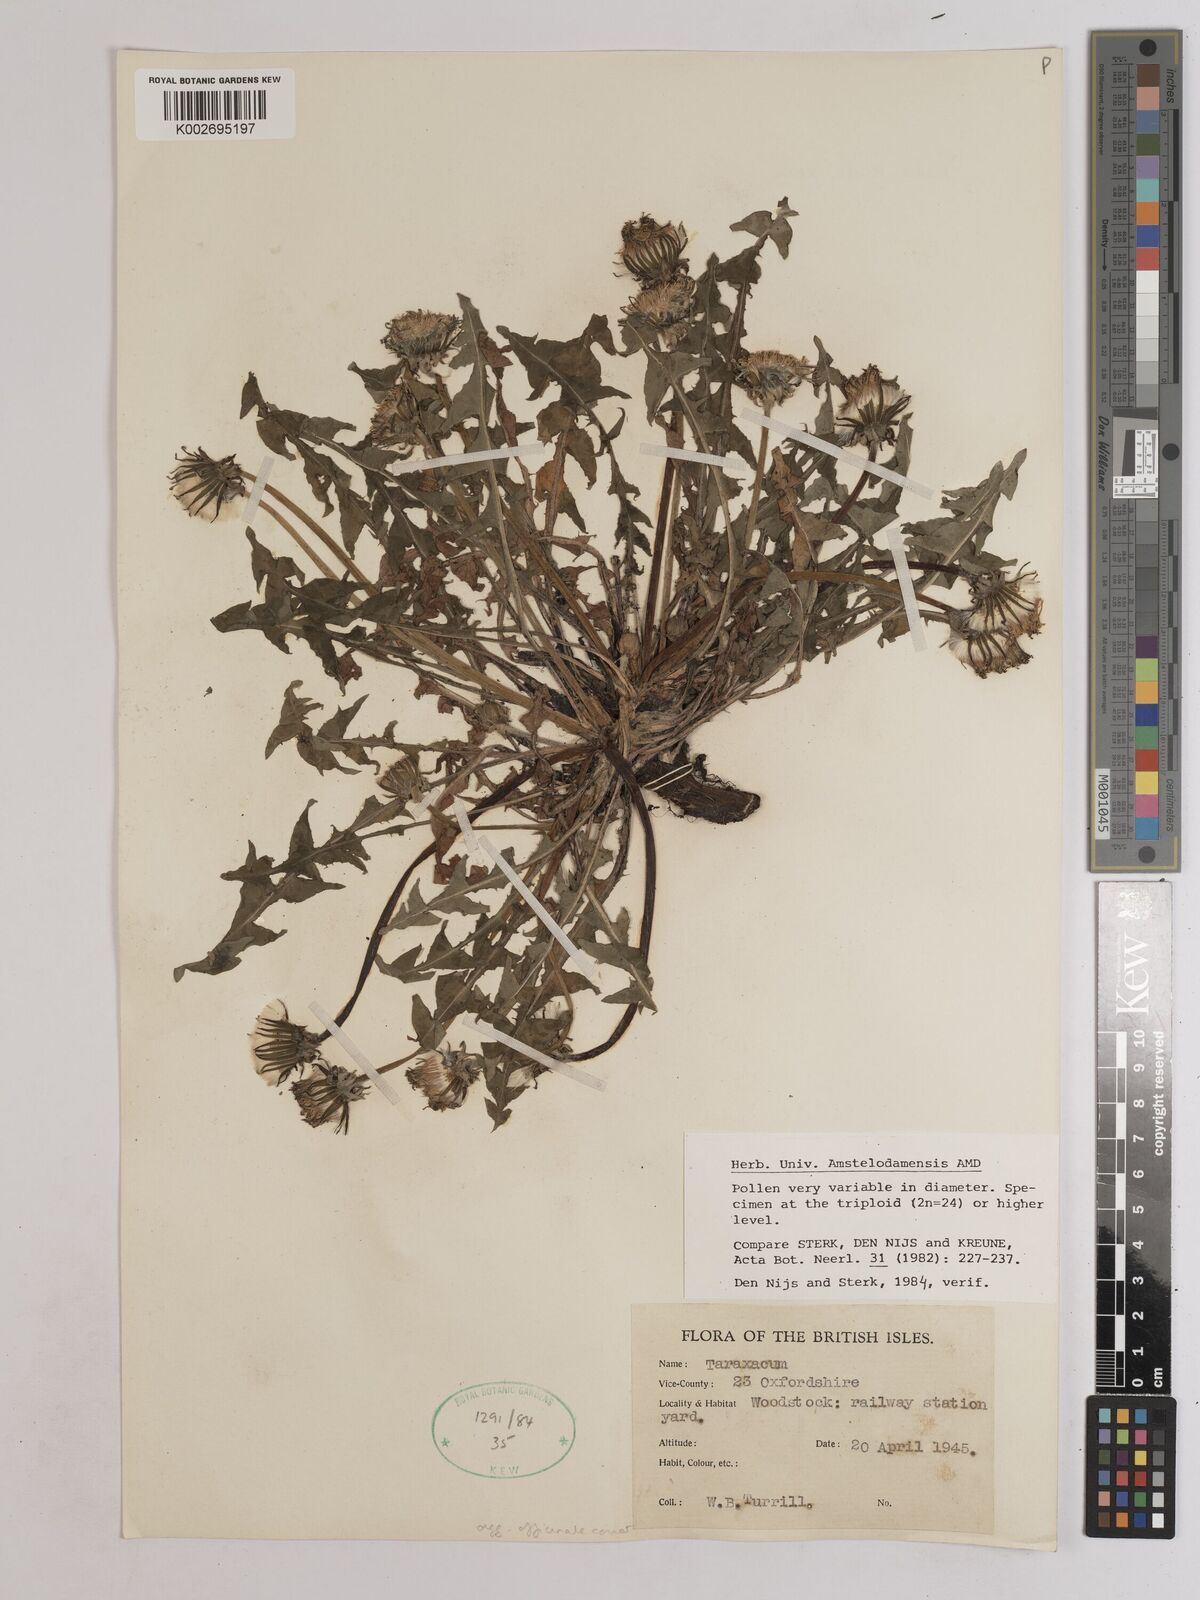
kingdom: Plantae
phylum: Tracheophyta
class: Magnoliopsida
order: Asterales
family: Asteraceae
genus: Taraxacum
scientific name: Taraxacum officinale
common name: Common dandelion
